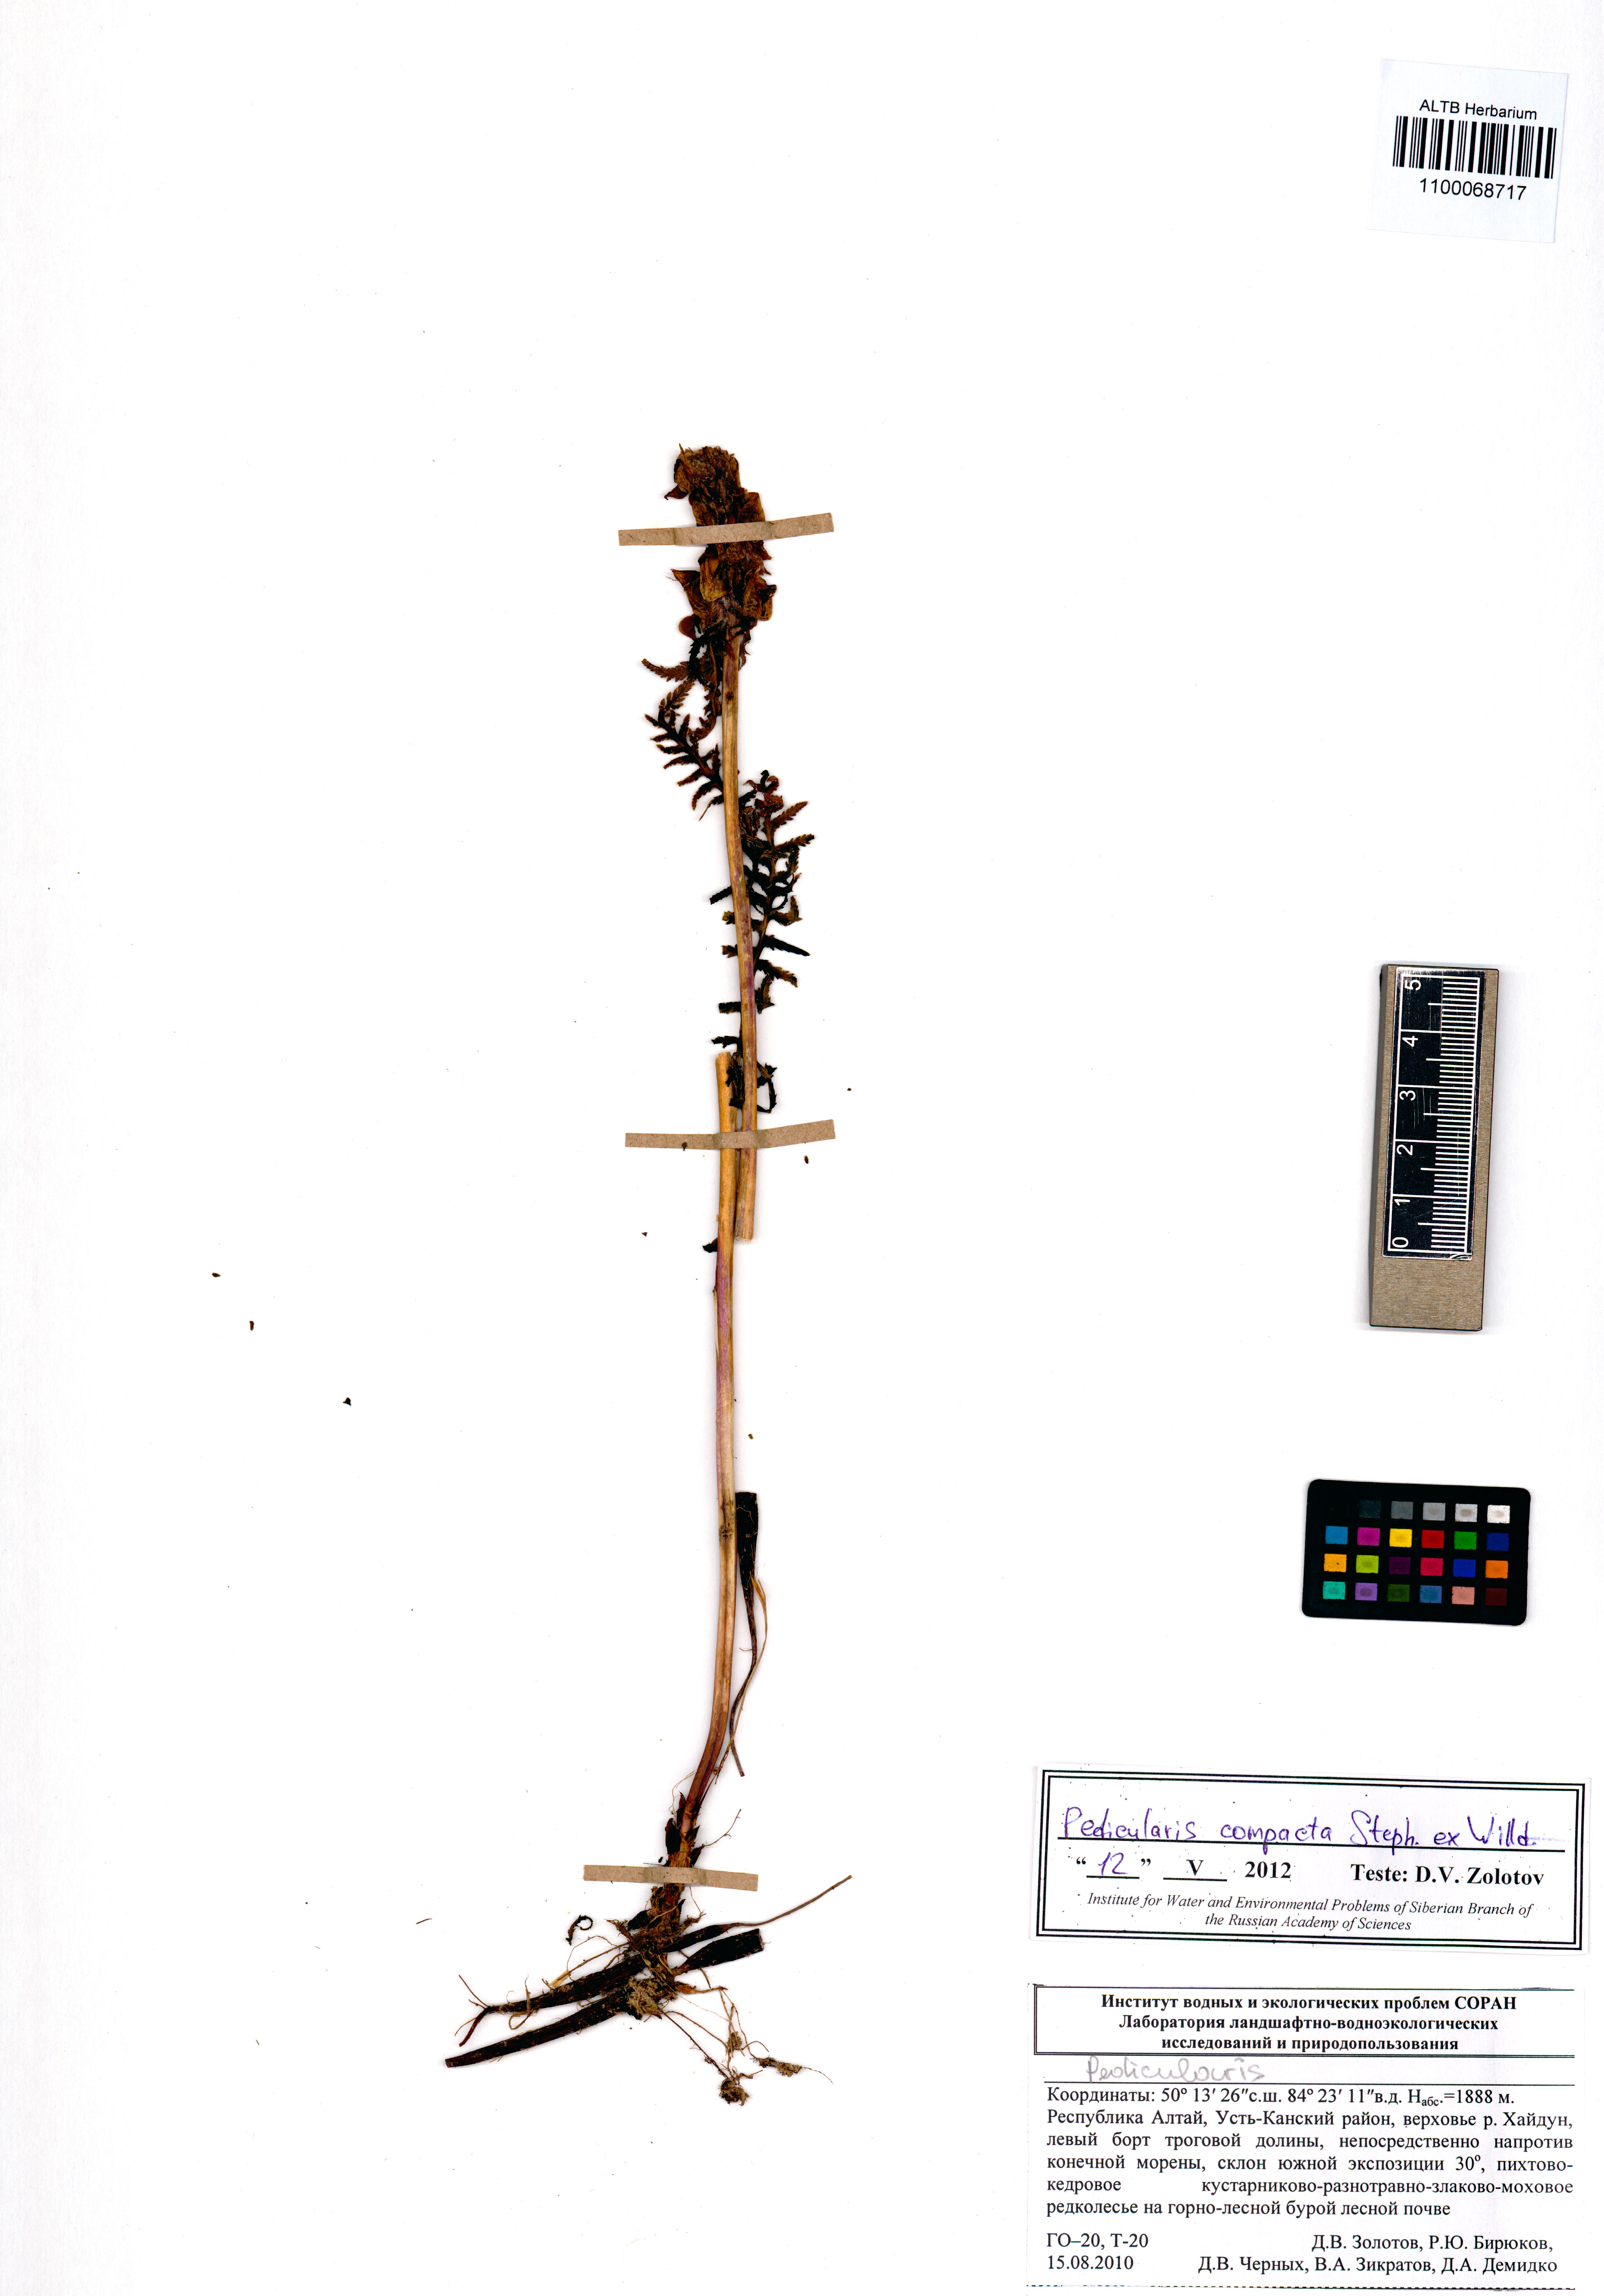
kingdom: Plantae
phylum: Tracheophyta
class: Magnoliopsida
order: Lamiales
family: Orobanchaceae
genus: Pedicularis
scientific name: Pedicularis compacta
